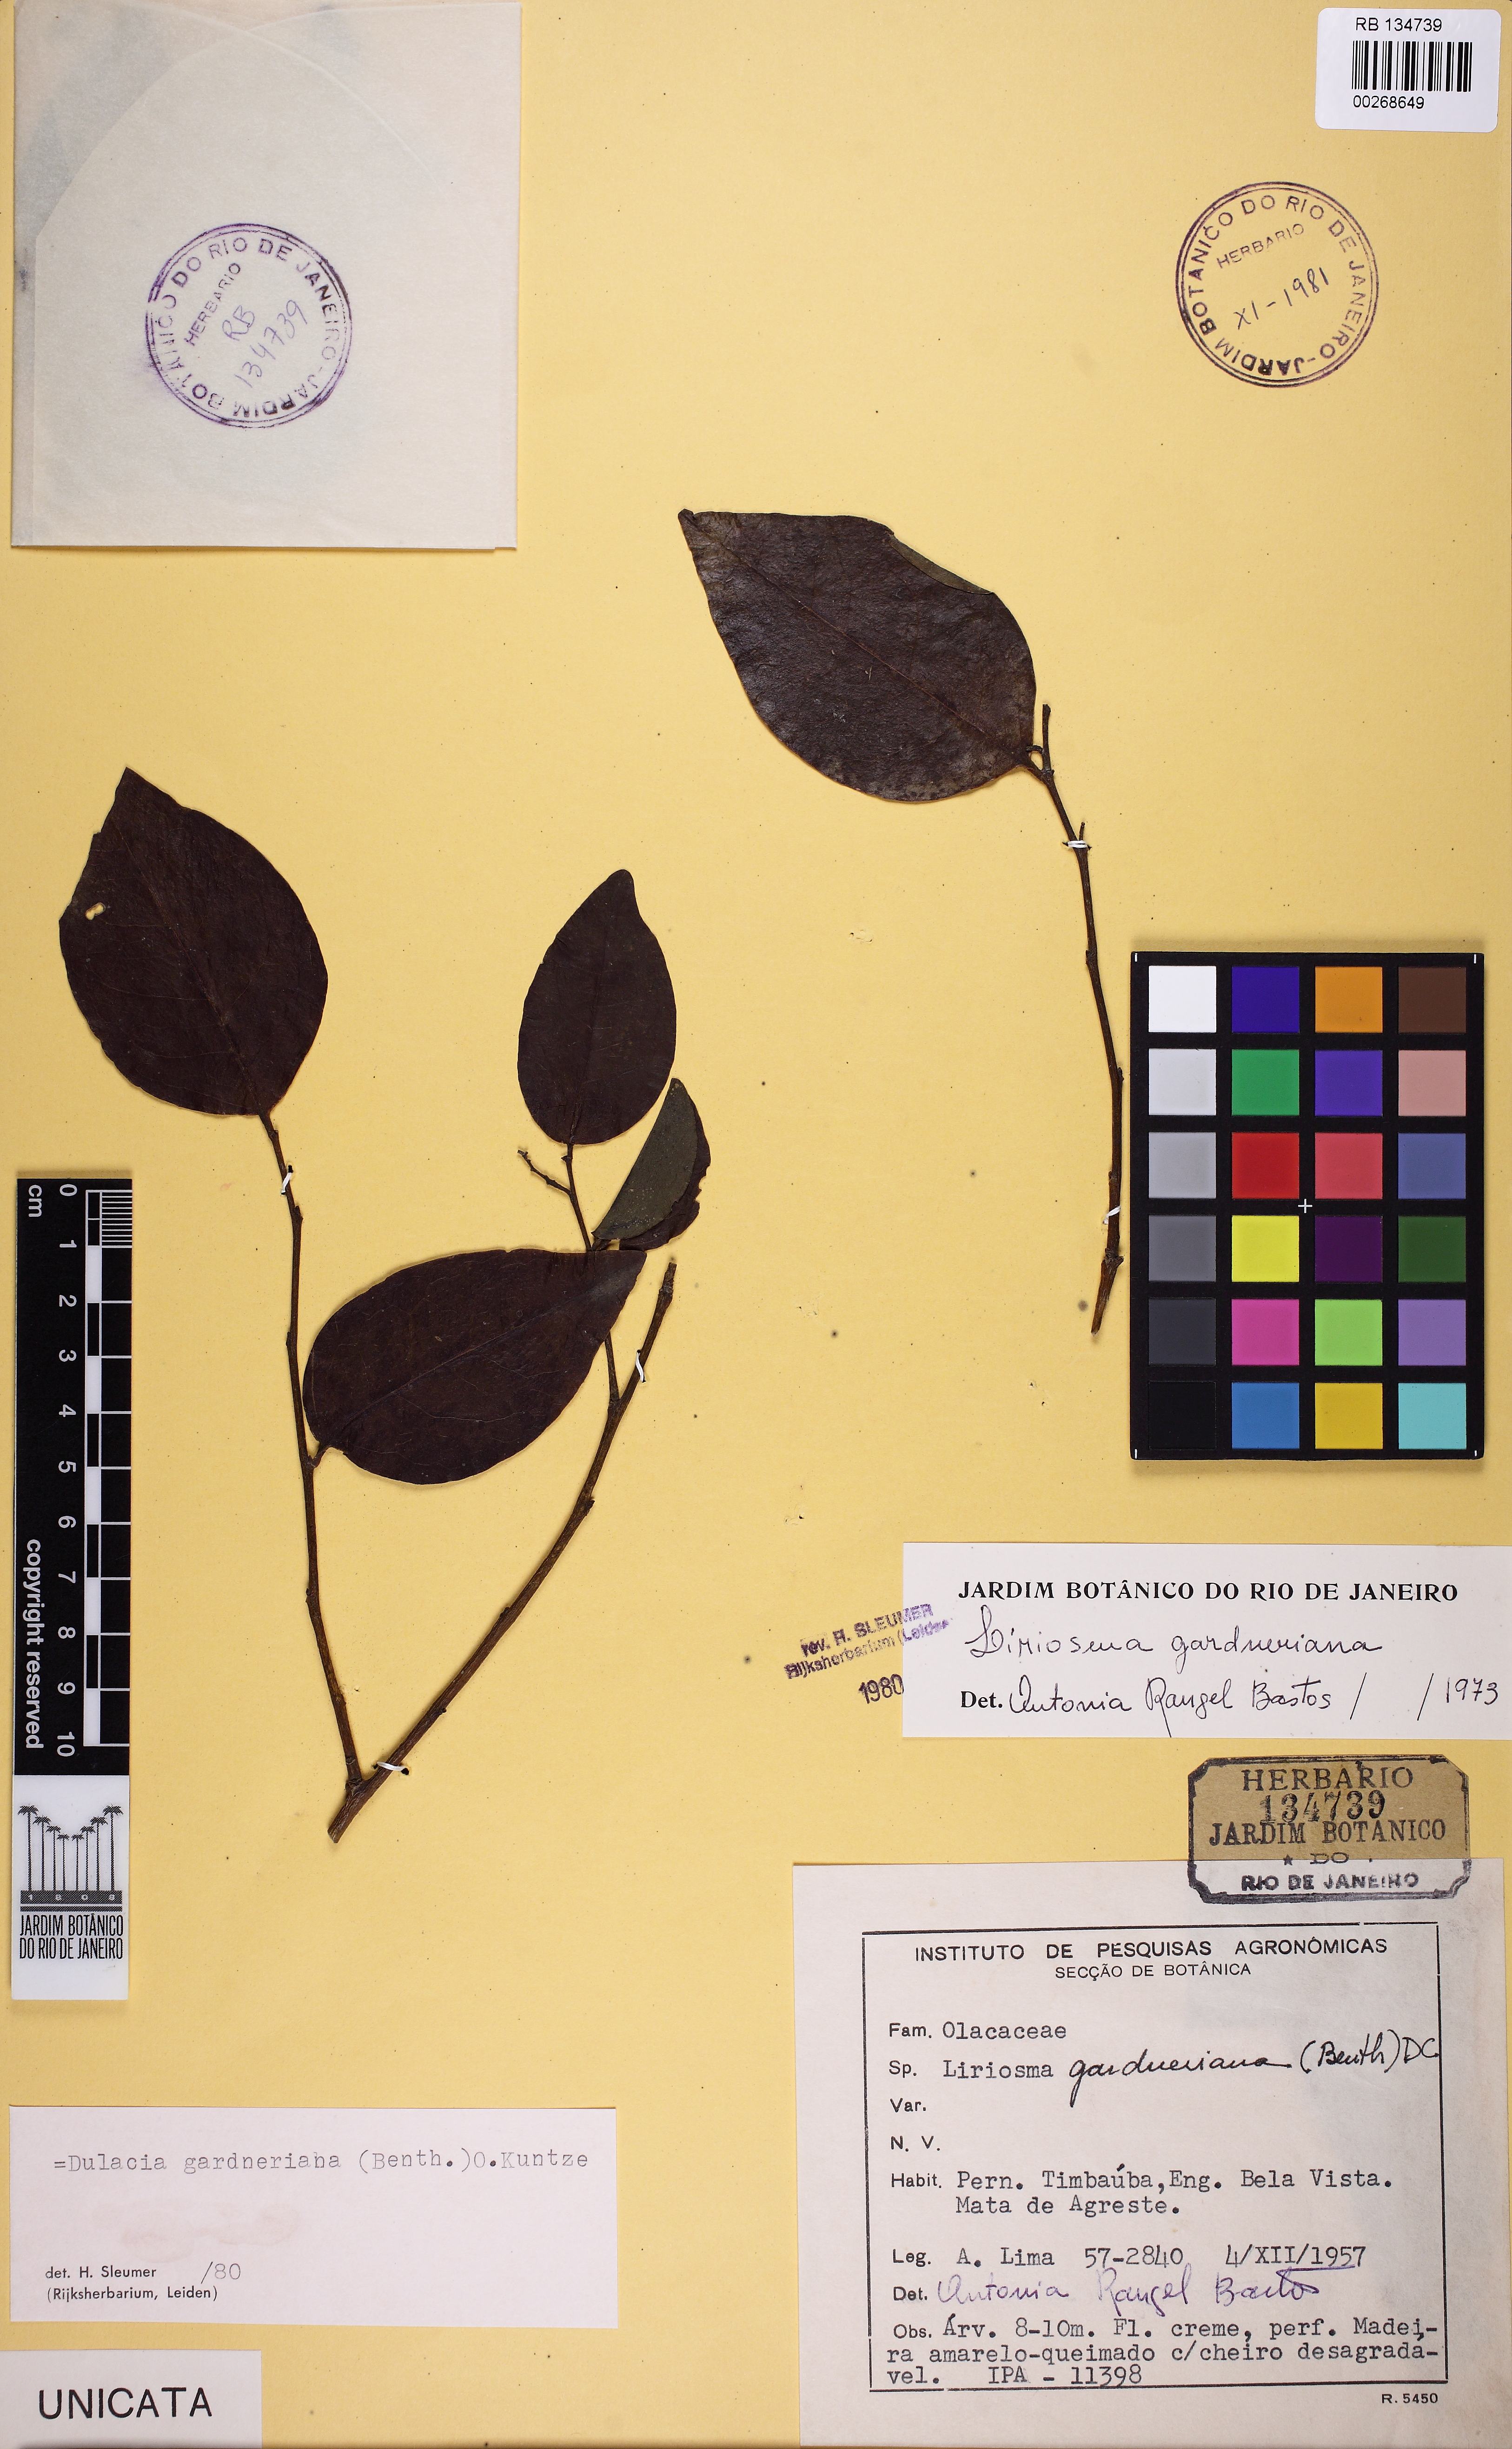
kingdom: Plantae
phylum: Tracheophyta
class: Magnoliopsida
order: Santalales
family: Olacaceae
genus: Dulacia
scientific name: Dulacia gardneriana
